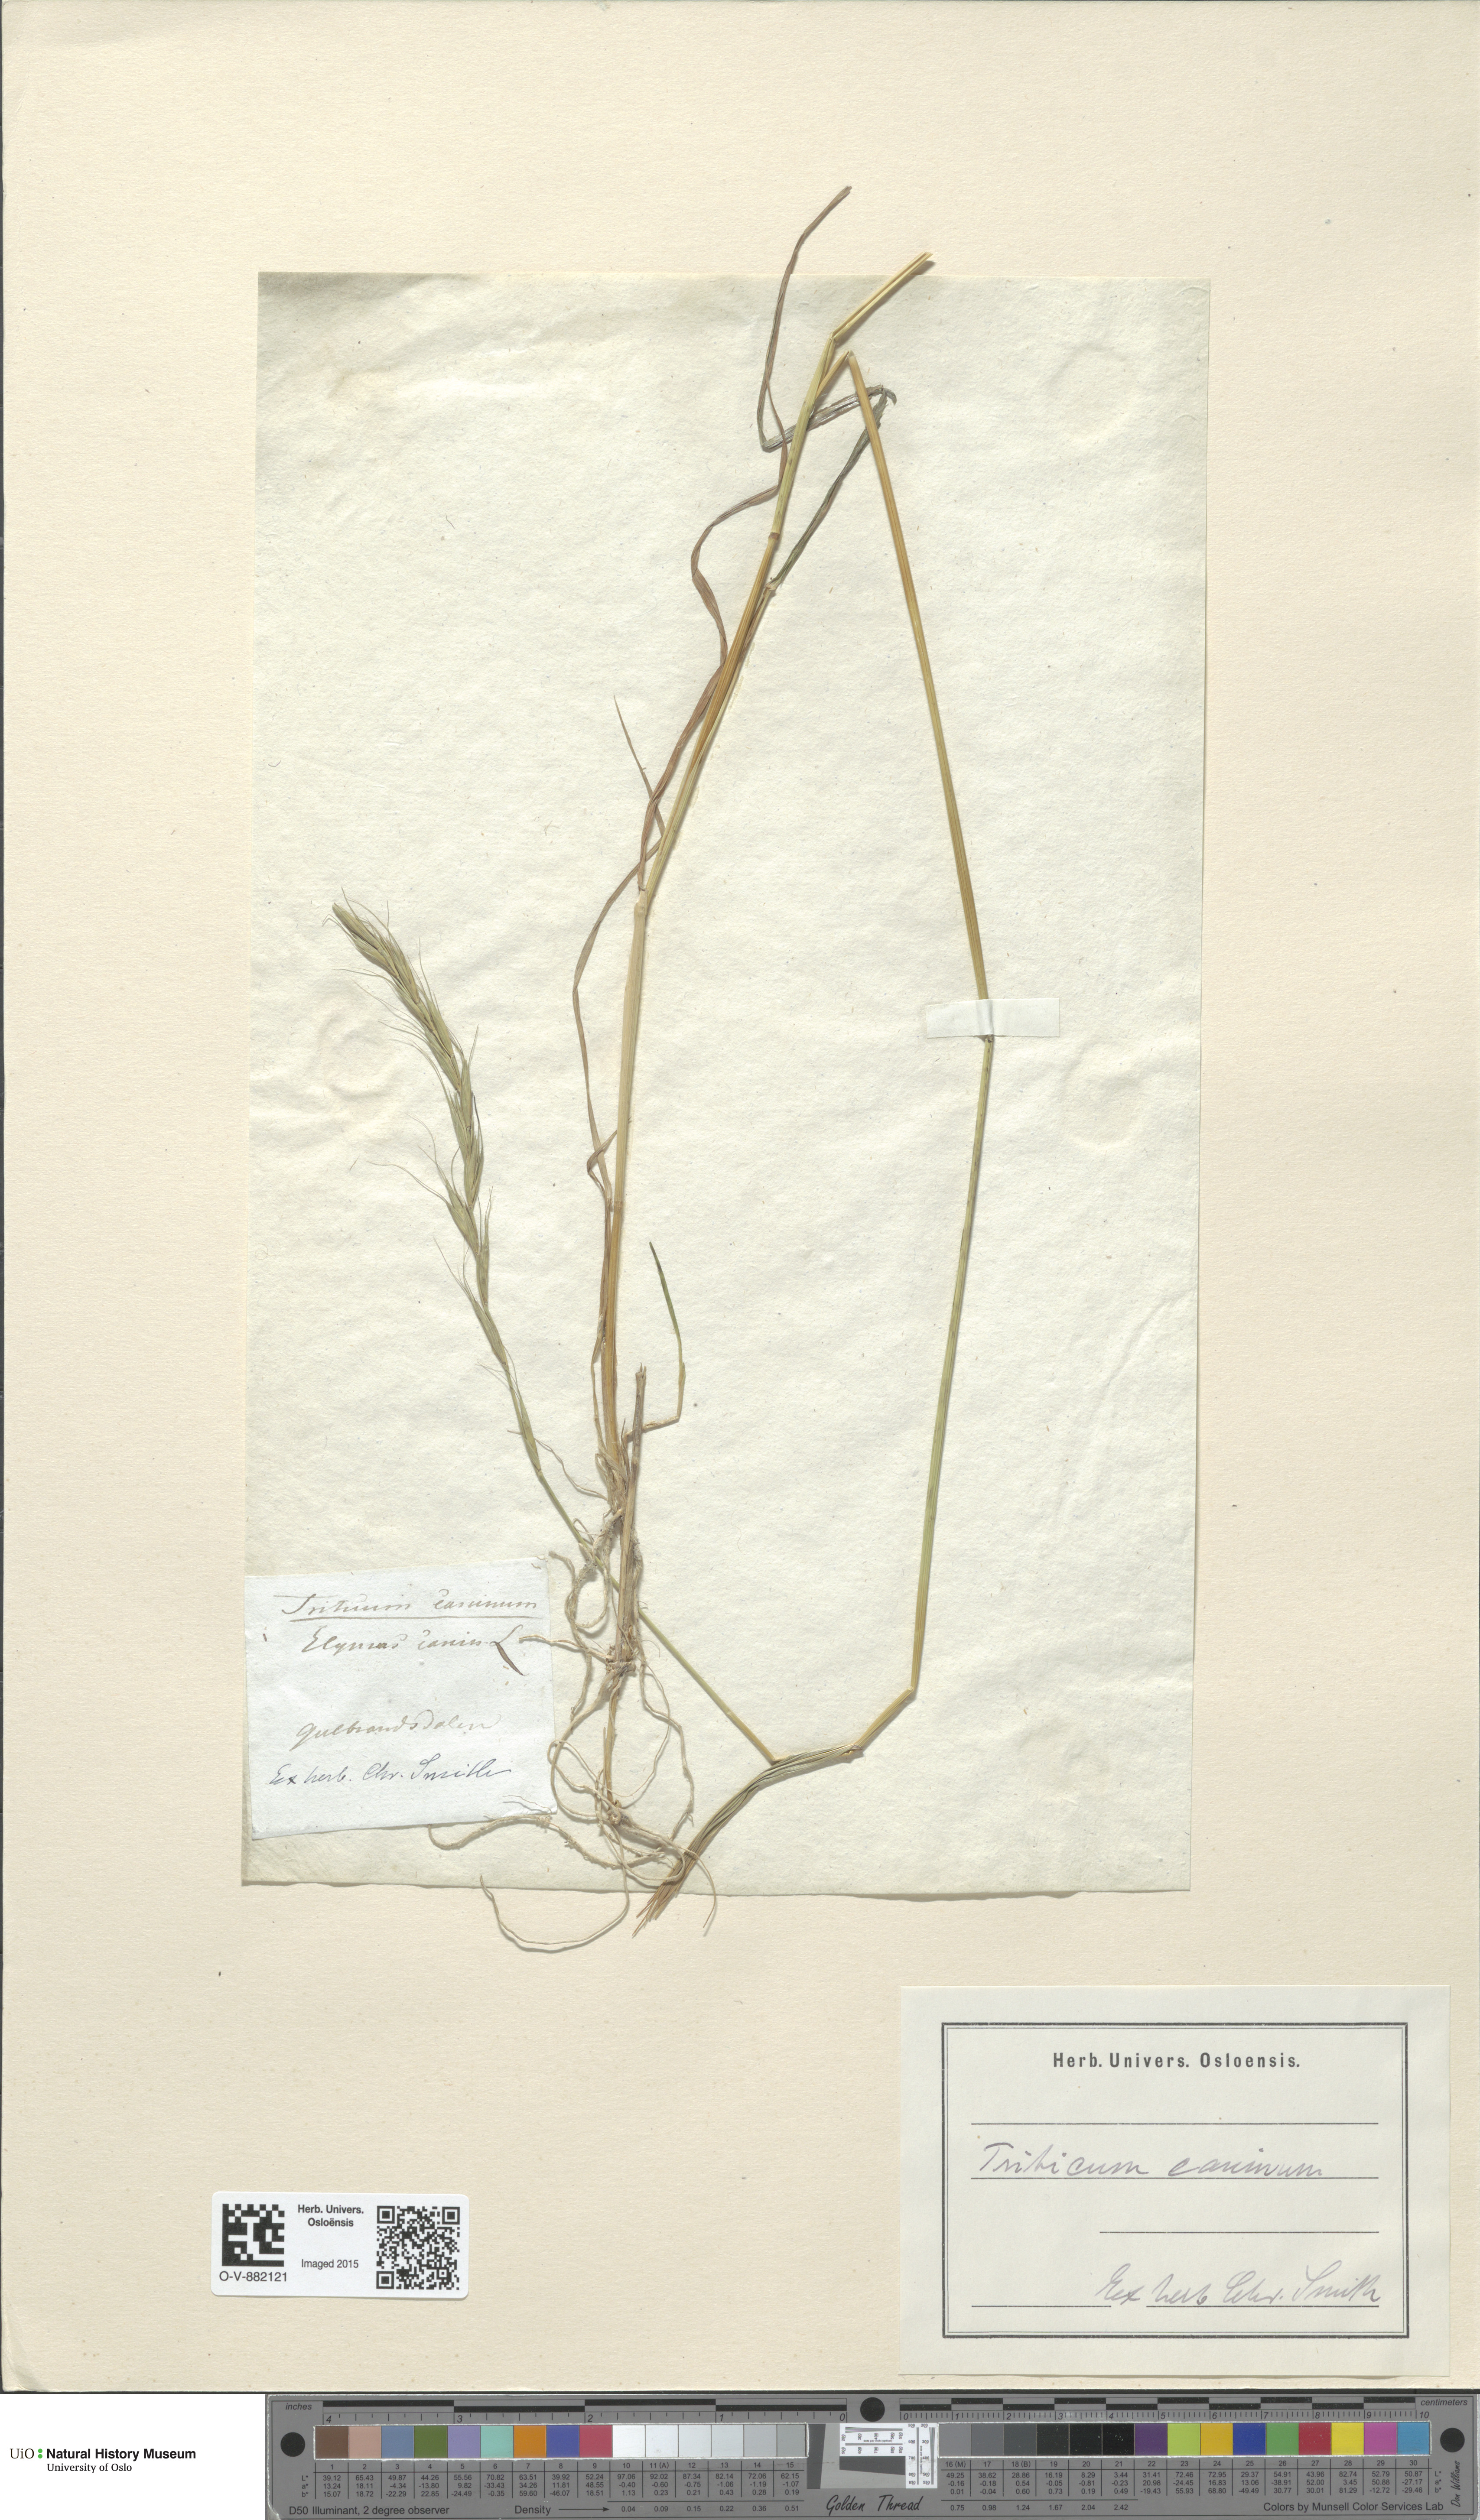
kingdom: Plantae
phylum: Tracheophyta
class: Liliopsida
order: Poales
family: Poaceae
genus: Elymus
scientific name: Elymus caninus
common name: Bearded couch
